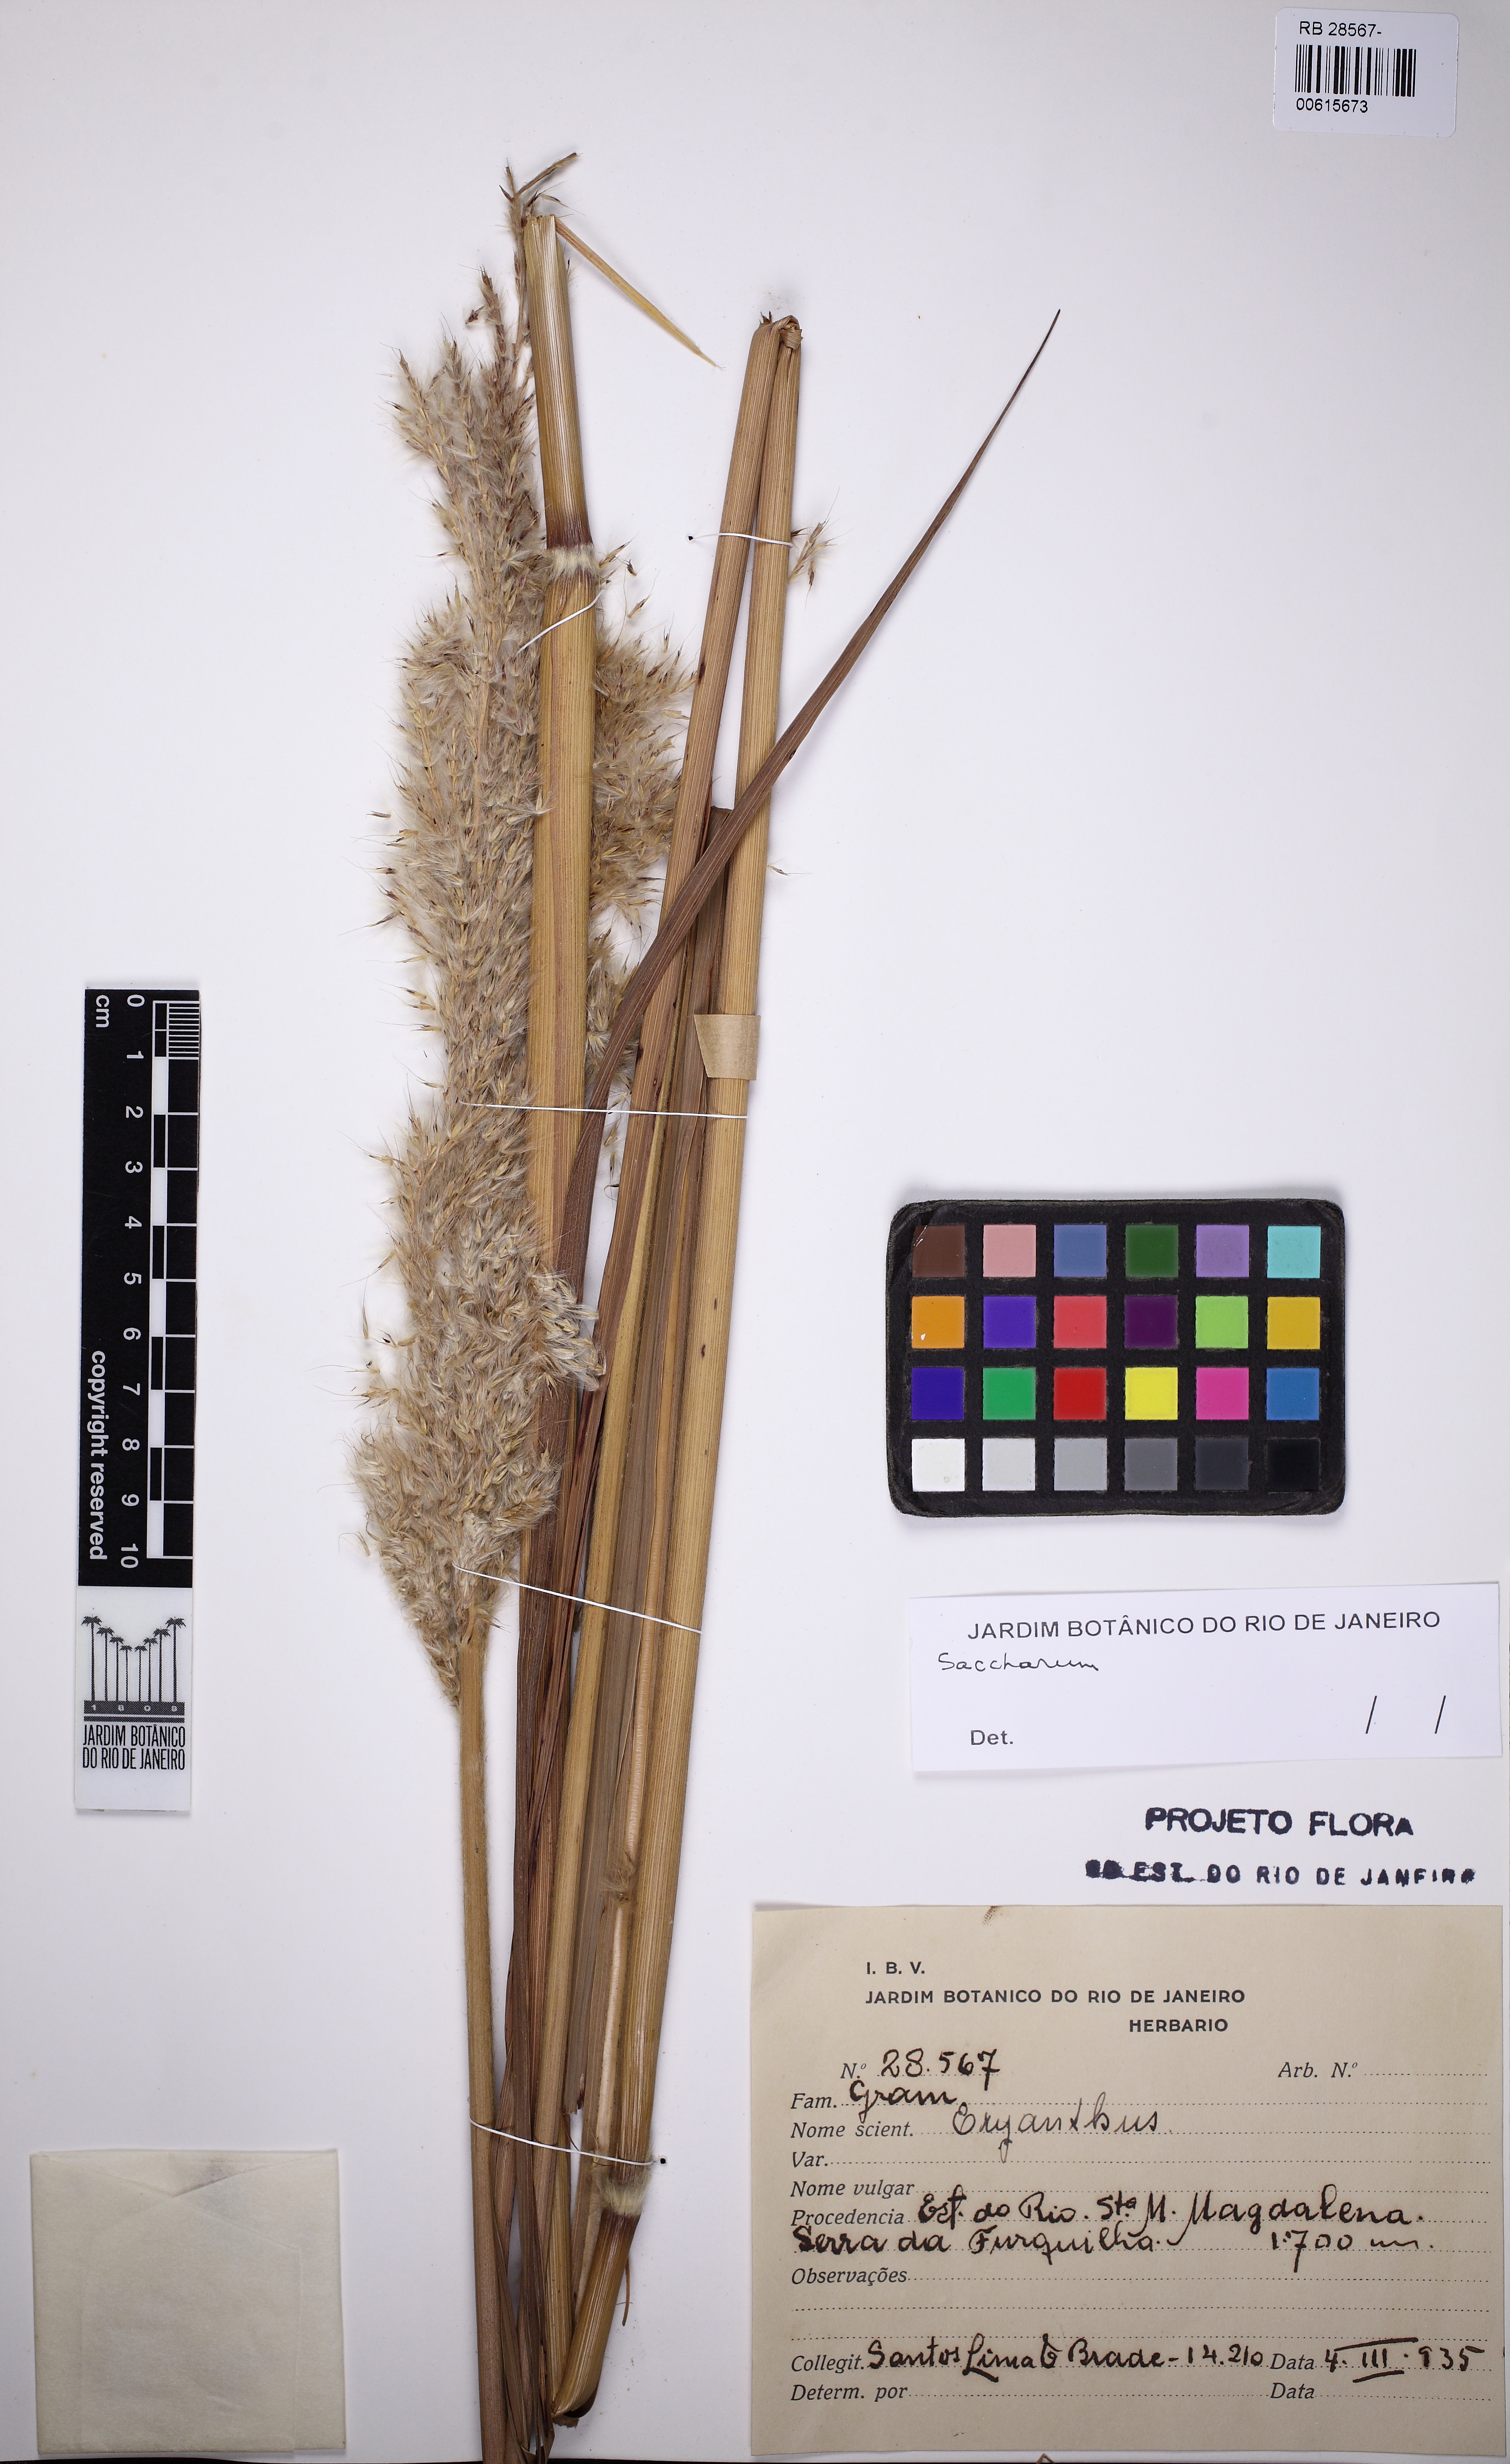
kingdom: Plantae
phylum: Tracheophyta
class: Liliopsida
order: Poales
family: Poaceae
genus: Saccharum
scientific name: Saccharum
